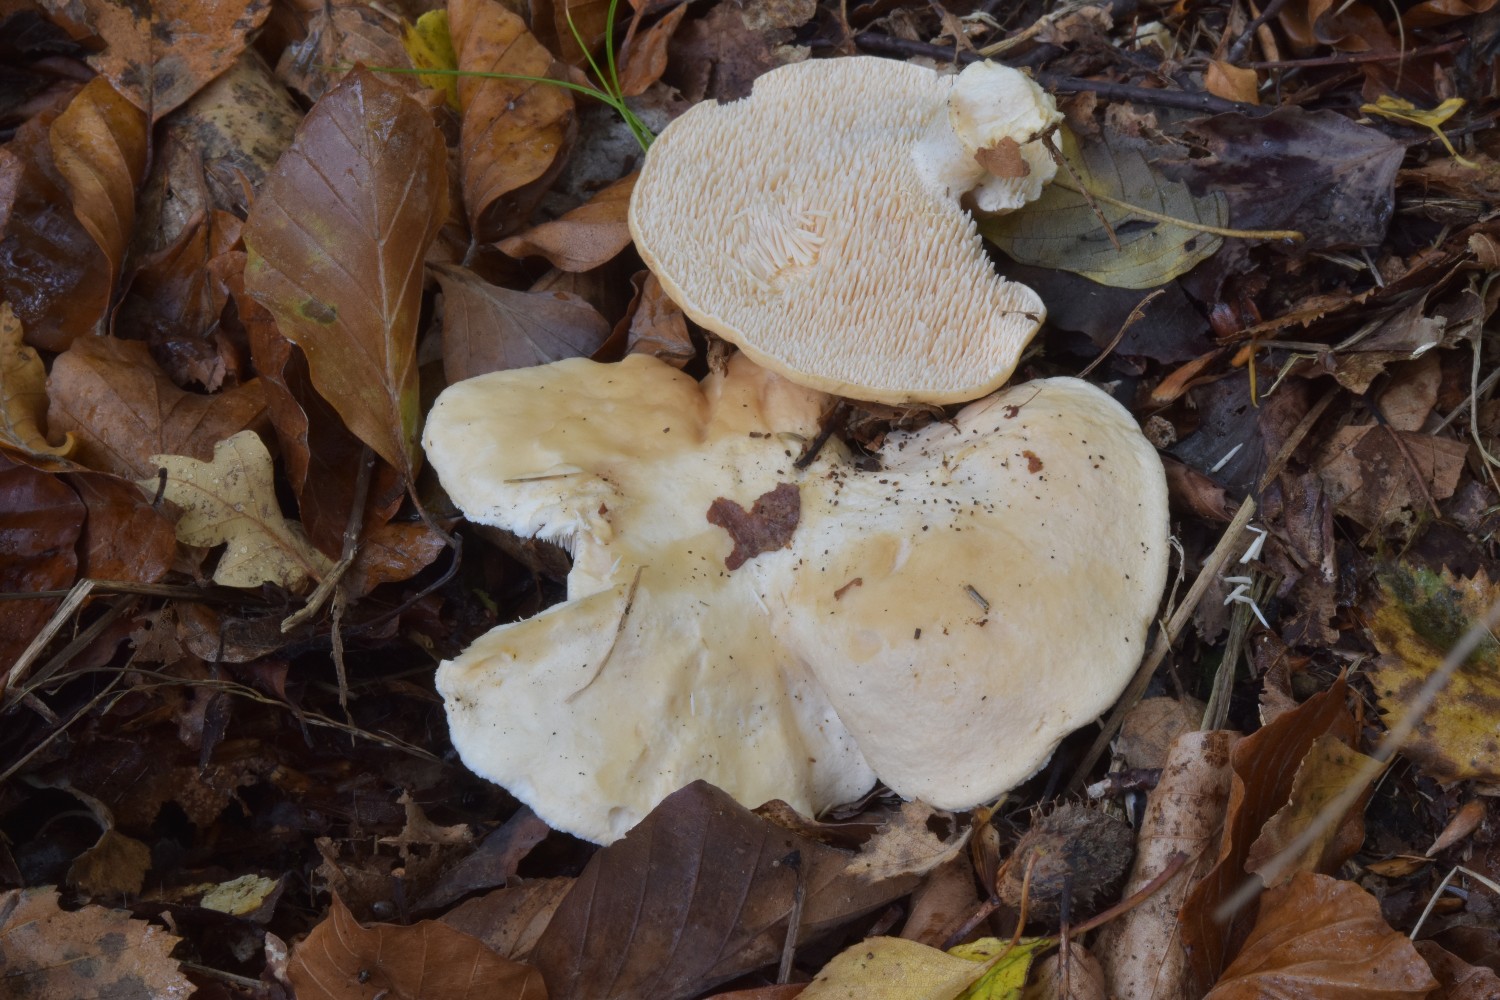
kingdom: Fungi
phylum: Basidiomycota
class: Agaricomycetes
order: Cantharellales
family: Hydnaceae
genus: Hydnum
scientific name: Hydnum repandum
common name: almindelig pigsvamp
